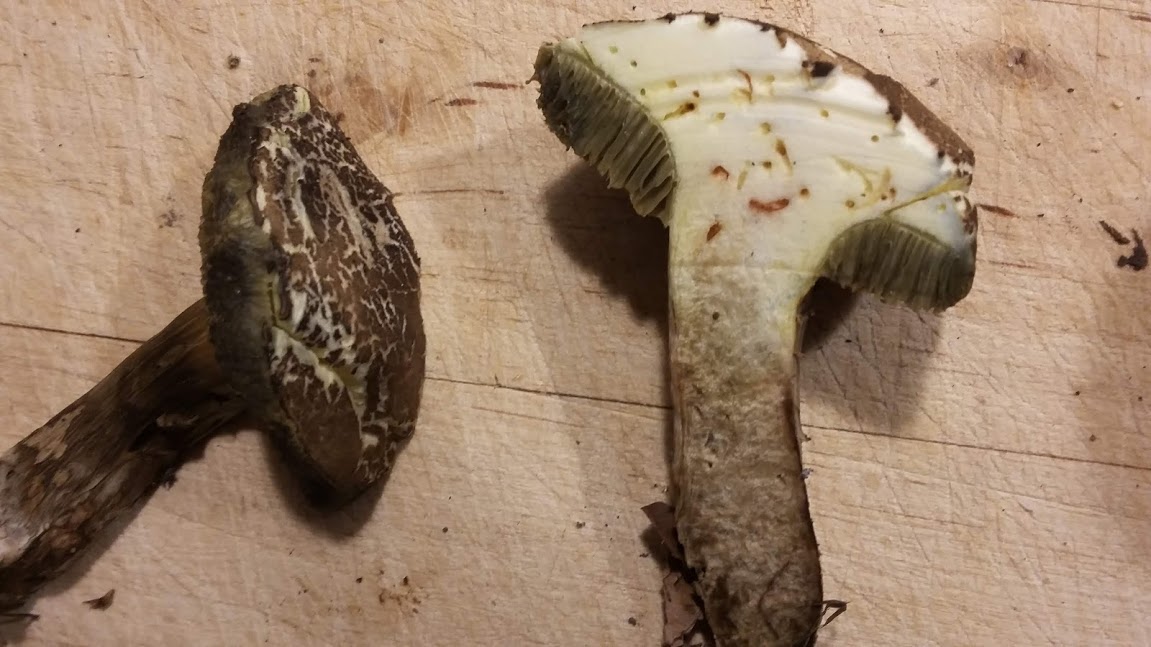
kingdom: Fungi
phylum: Basidiomycota
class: Agaricomycetes
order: Boletales
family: Boletaceae
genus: Xerocomellus
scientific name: Xerocomellus porosporus
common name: hvidsprukken rørhat
